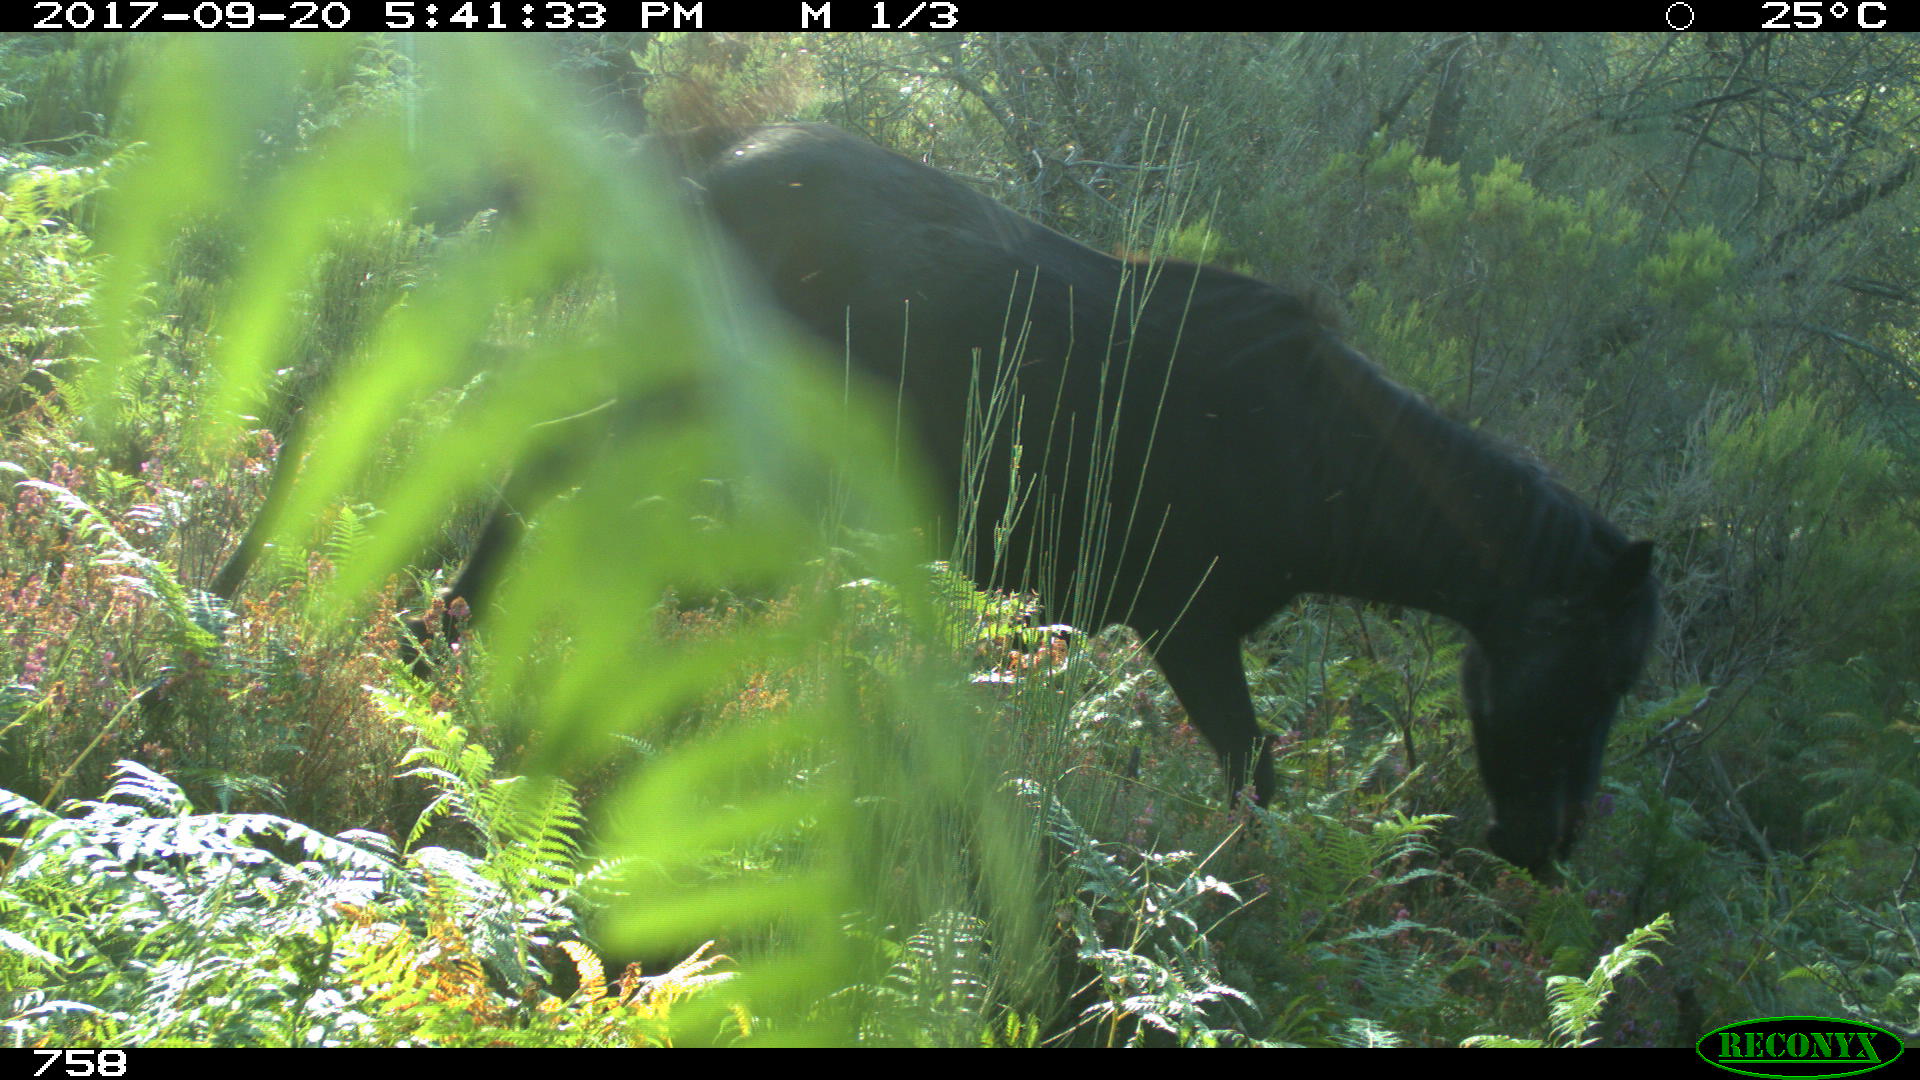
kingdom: Animalia
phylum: Chordata
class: Mammalia
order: Perissodactyla
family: Equidae
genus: Equus
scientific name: Equus caballus
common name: Horse
